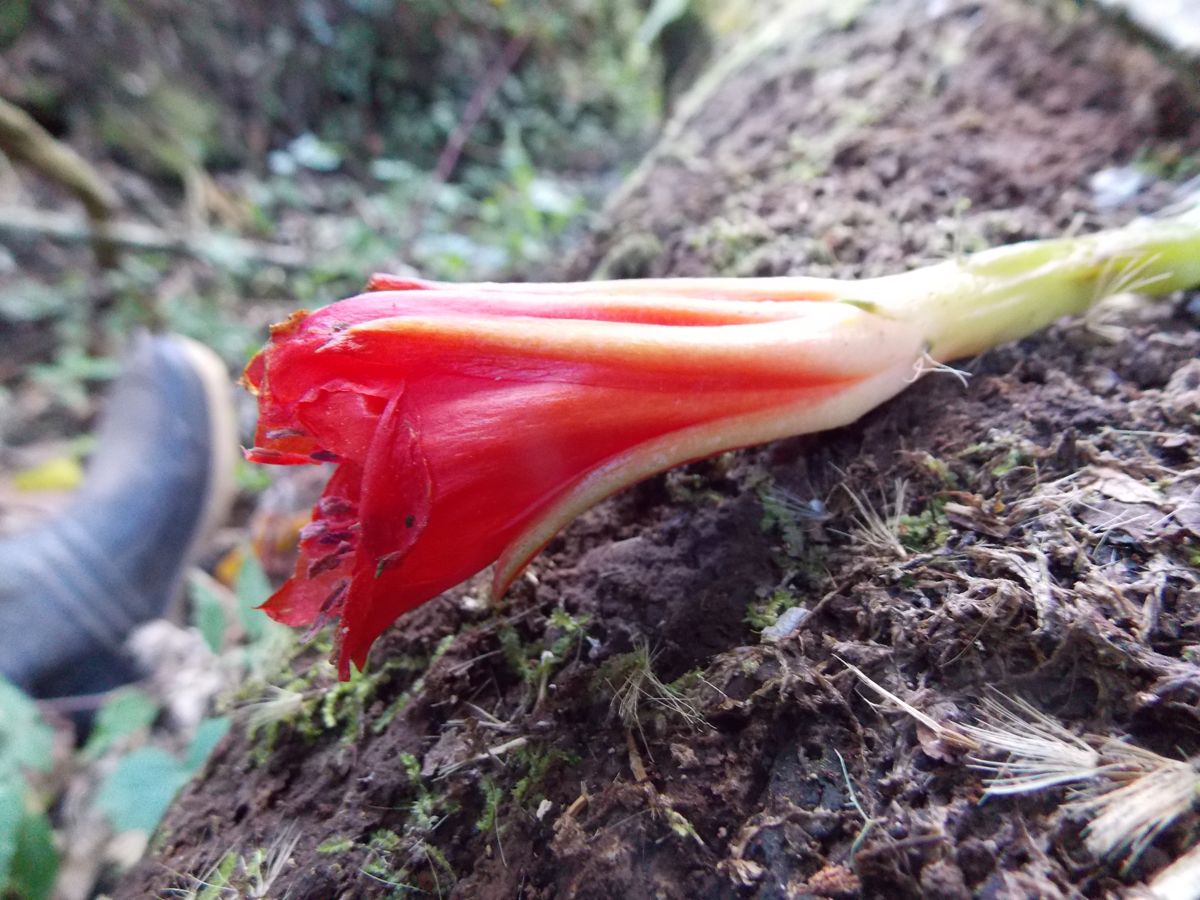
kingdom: Plantae
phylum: Tracheophyta
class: Magnoliopsida
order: Caryophyllales
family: Cactaceae
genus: Disocactus
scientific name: Disocactus speciosus
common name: Sun cereus
